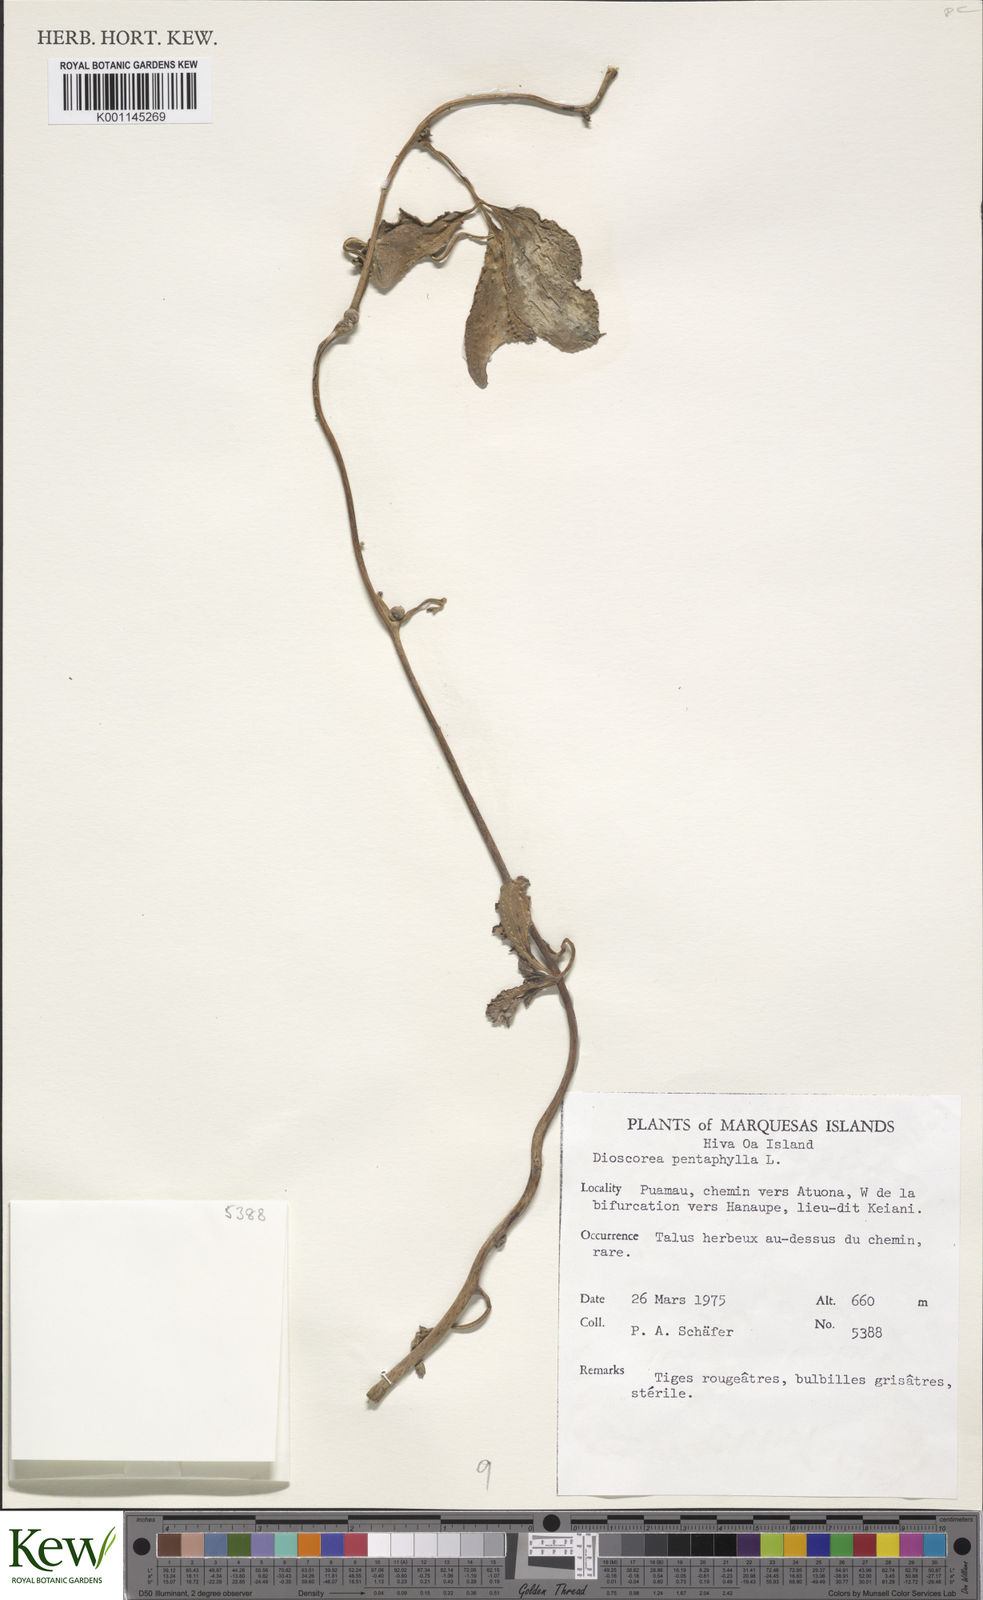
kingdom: Plantae
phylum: Tracheophyta
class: Liliopsida
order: Dioscoreales
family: Dioscoreaceae
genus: Dioscorea
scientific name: Dioscorea pentaphylla
